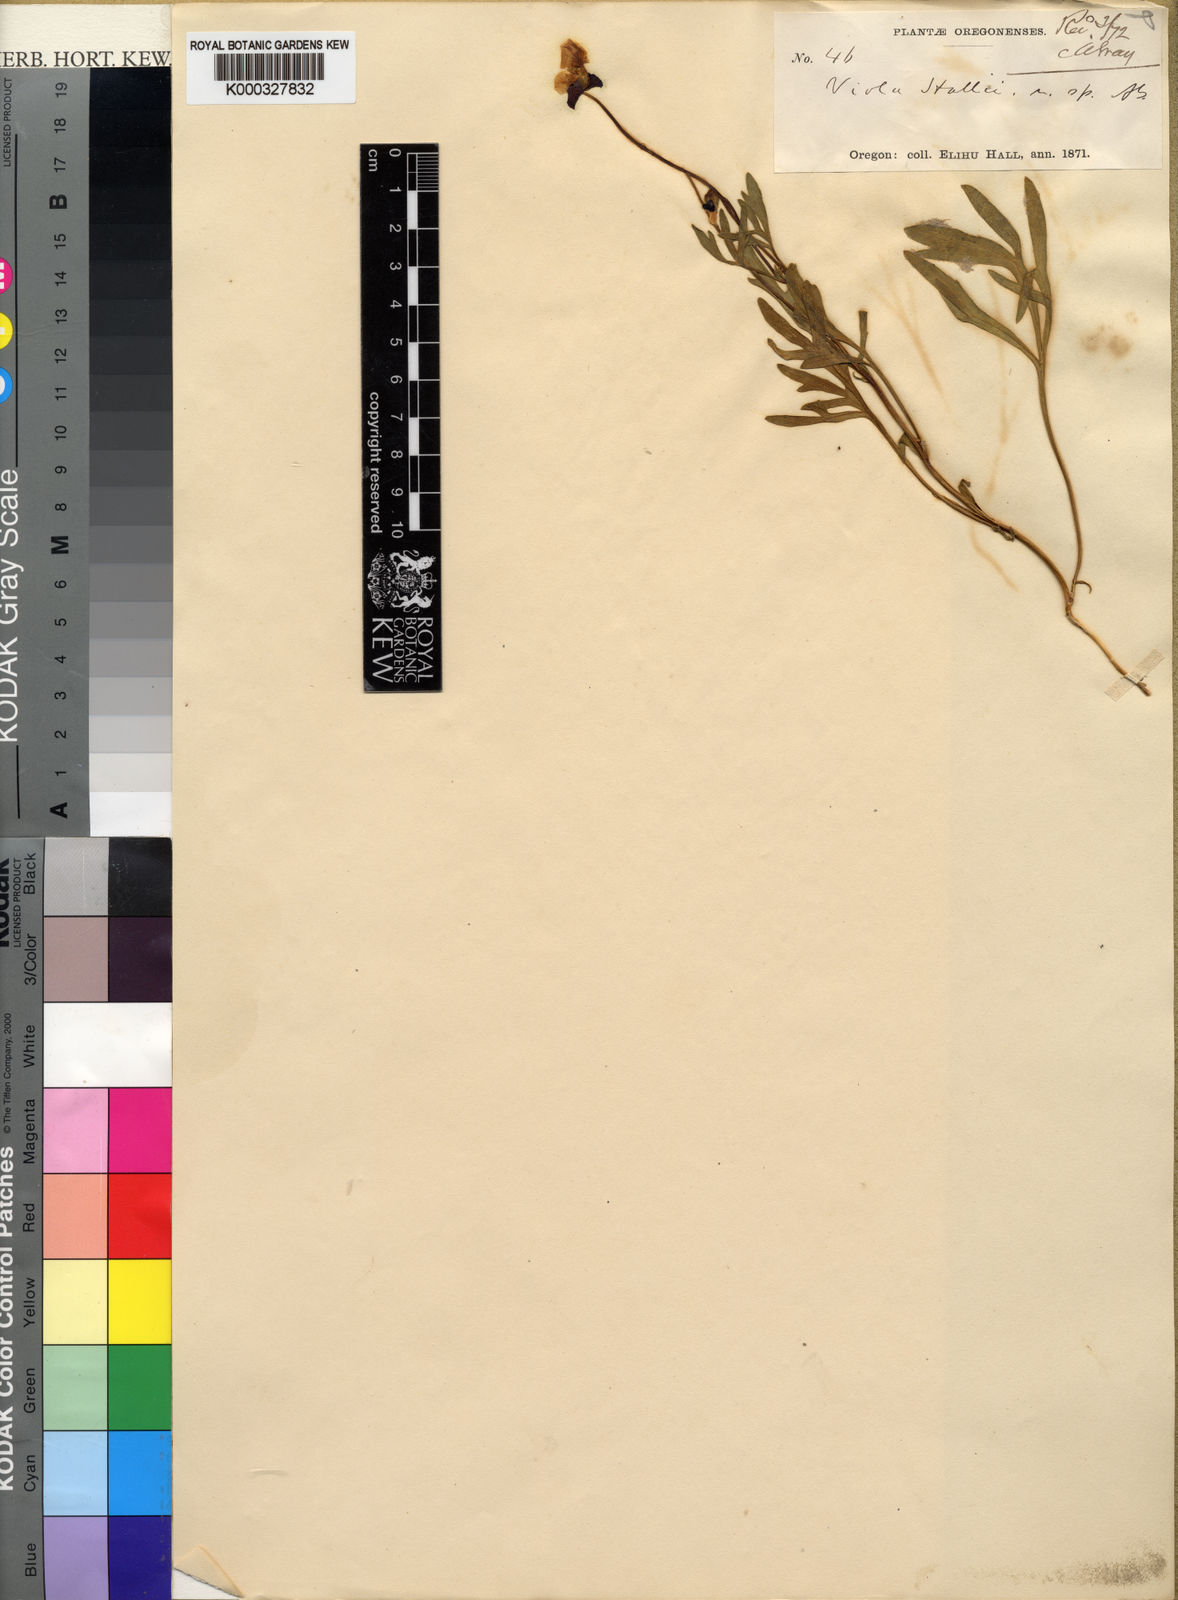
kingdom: Plantae
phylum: Tracheophyta
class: Magnoliopsida
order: Malpighiales
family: Violaceae
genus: Viola
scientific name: Viola hallii
